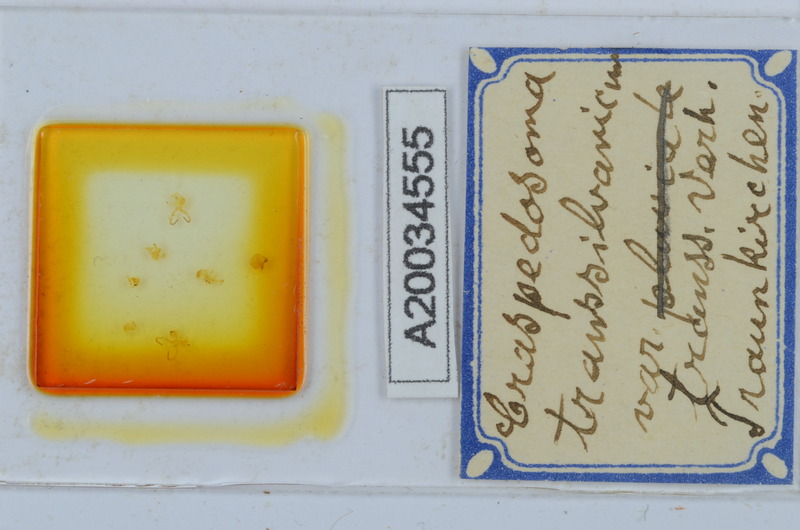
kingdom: Animalia
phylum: Arthropoda
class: Diplopoda
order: Chordeumatida
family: Craspedosomatidae
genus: Craspedosoma
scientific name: Craspedosoma rawlinsii
